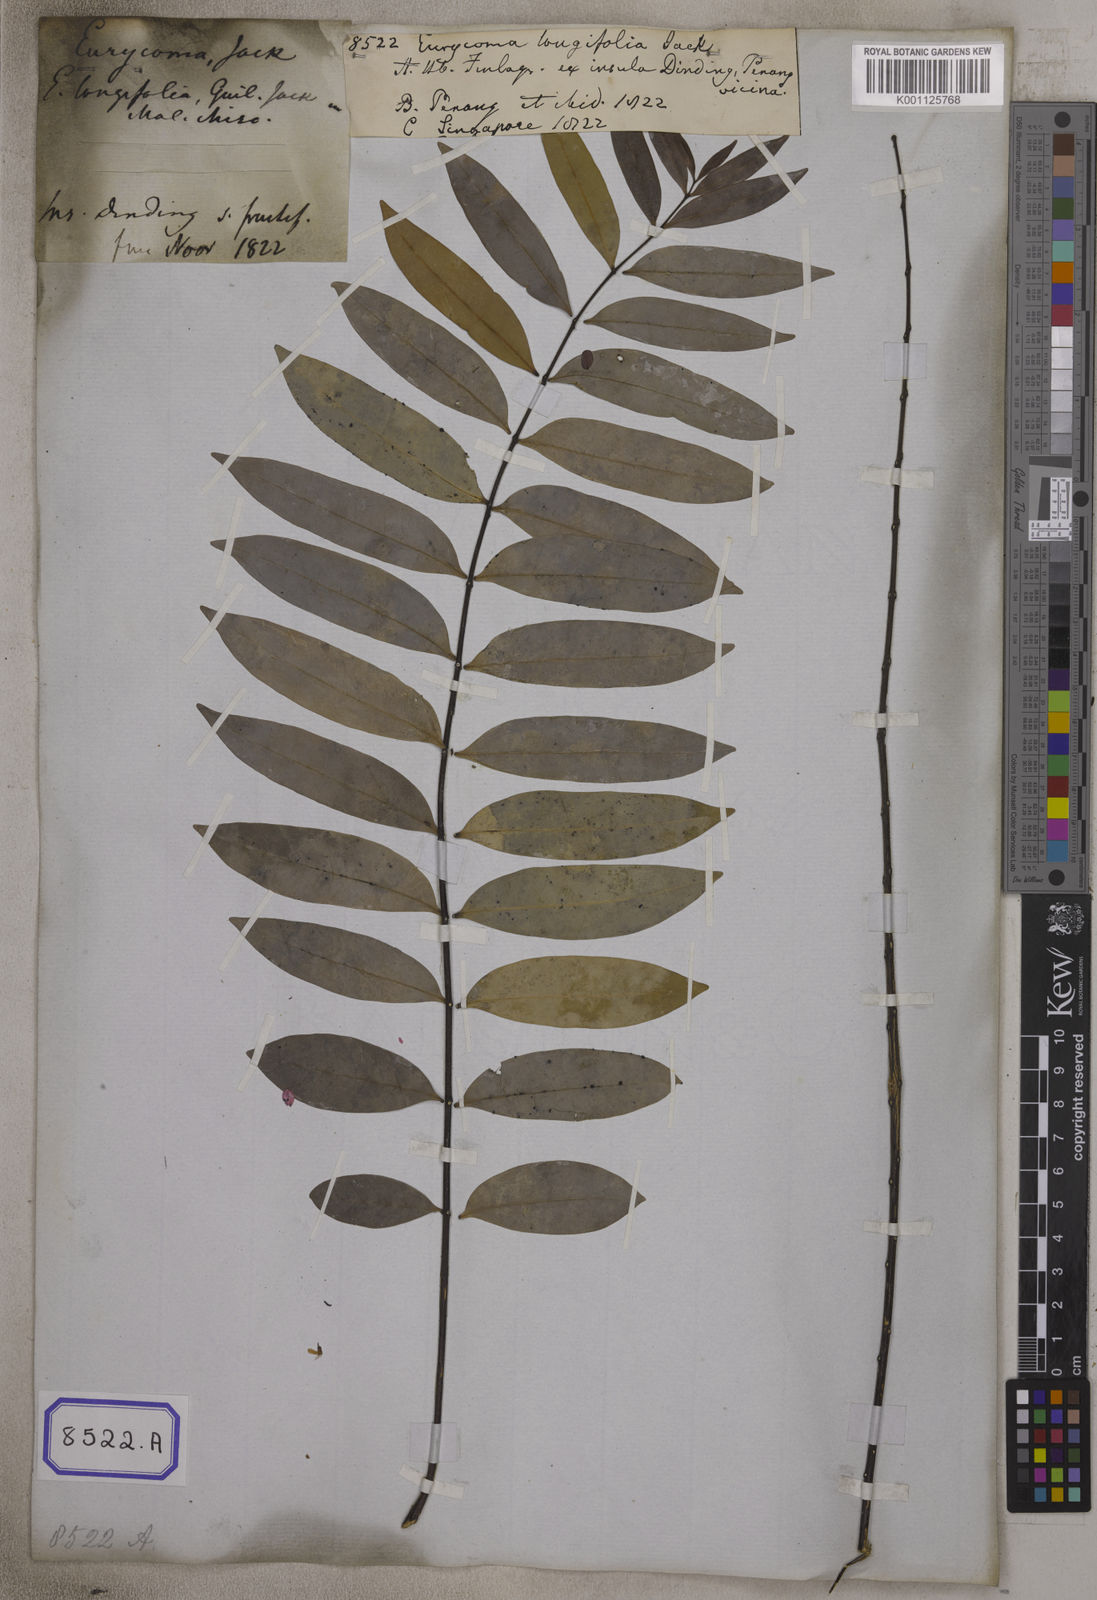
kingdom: Plantae
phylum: Tracheophyta
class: Magnoliopsida
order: Sapindales
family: Simaroubaceae
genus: Eurycoma
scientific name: Eurycoma longifolia
